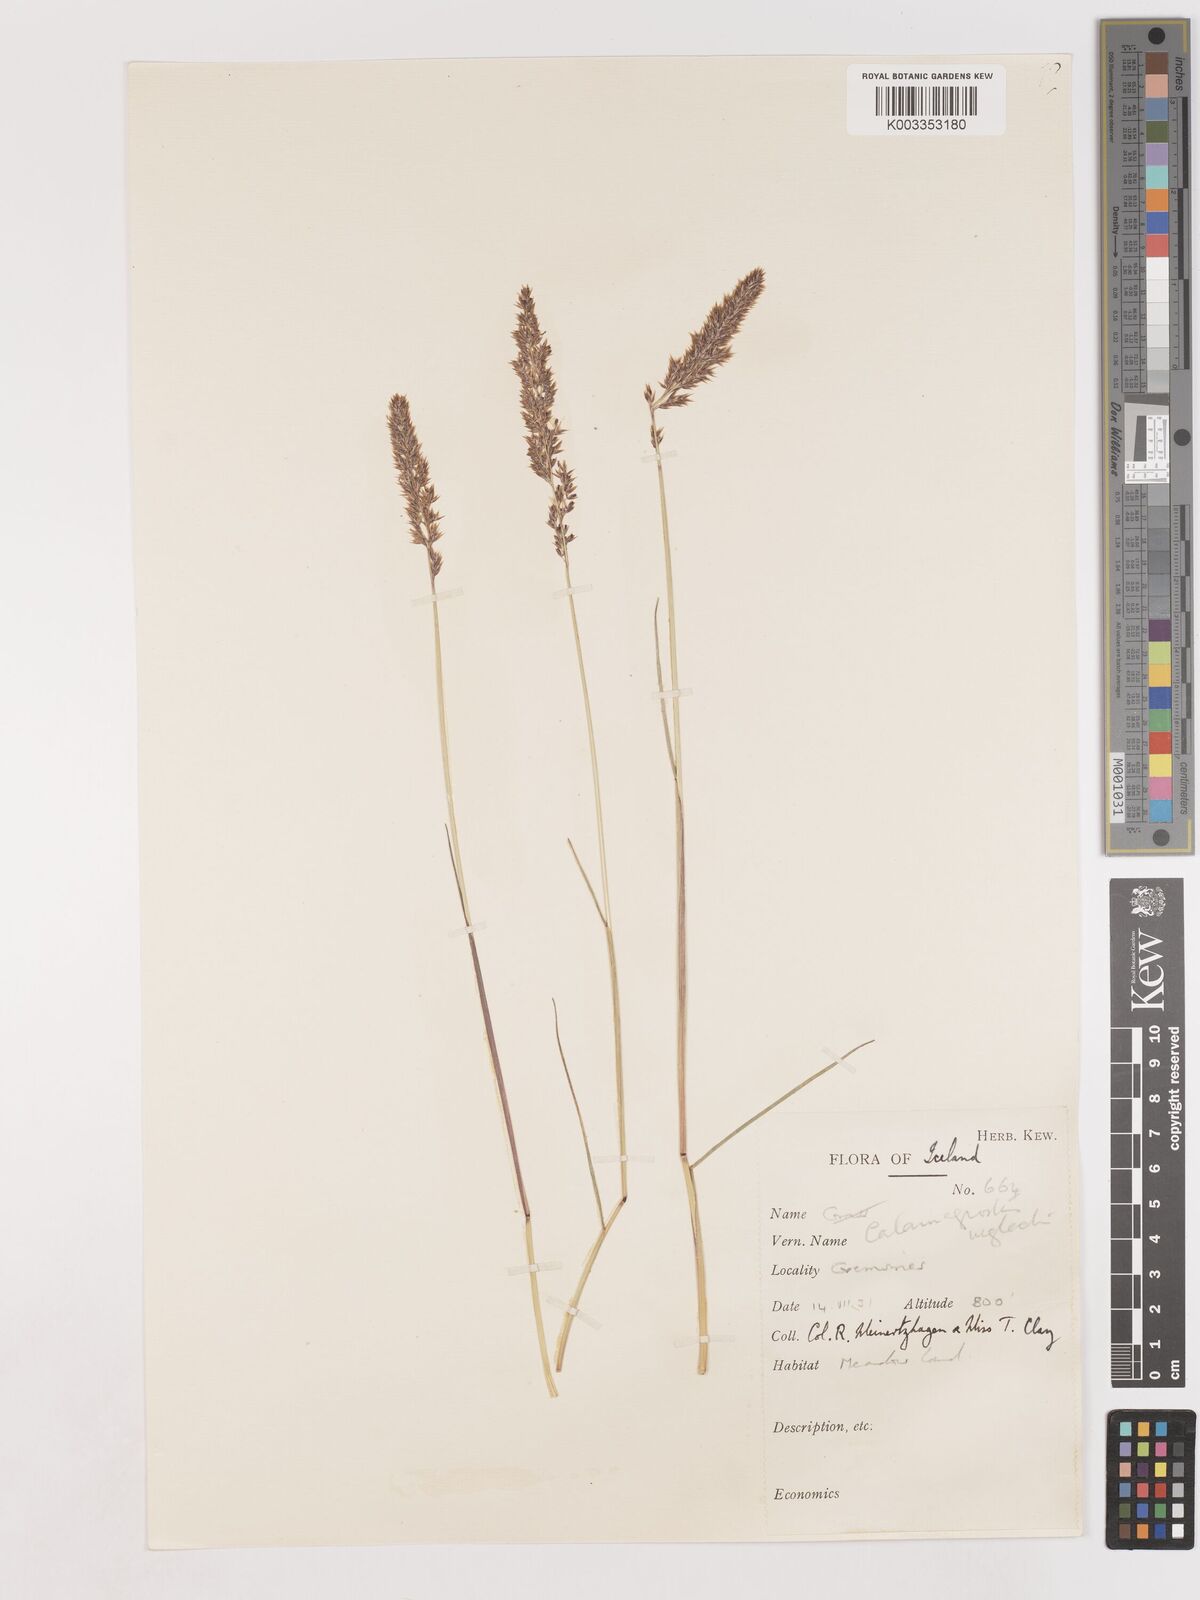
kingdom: Plantae
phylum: Tracheophyta
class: Liliopsida
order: Poales
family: Poaceae
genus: Cinnagrostis
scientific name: Cinnagrostis recta
